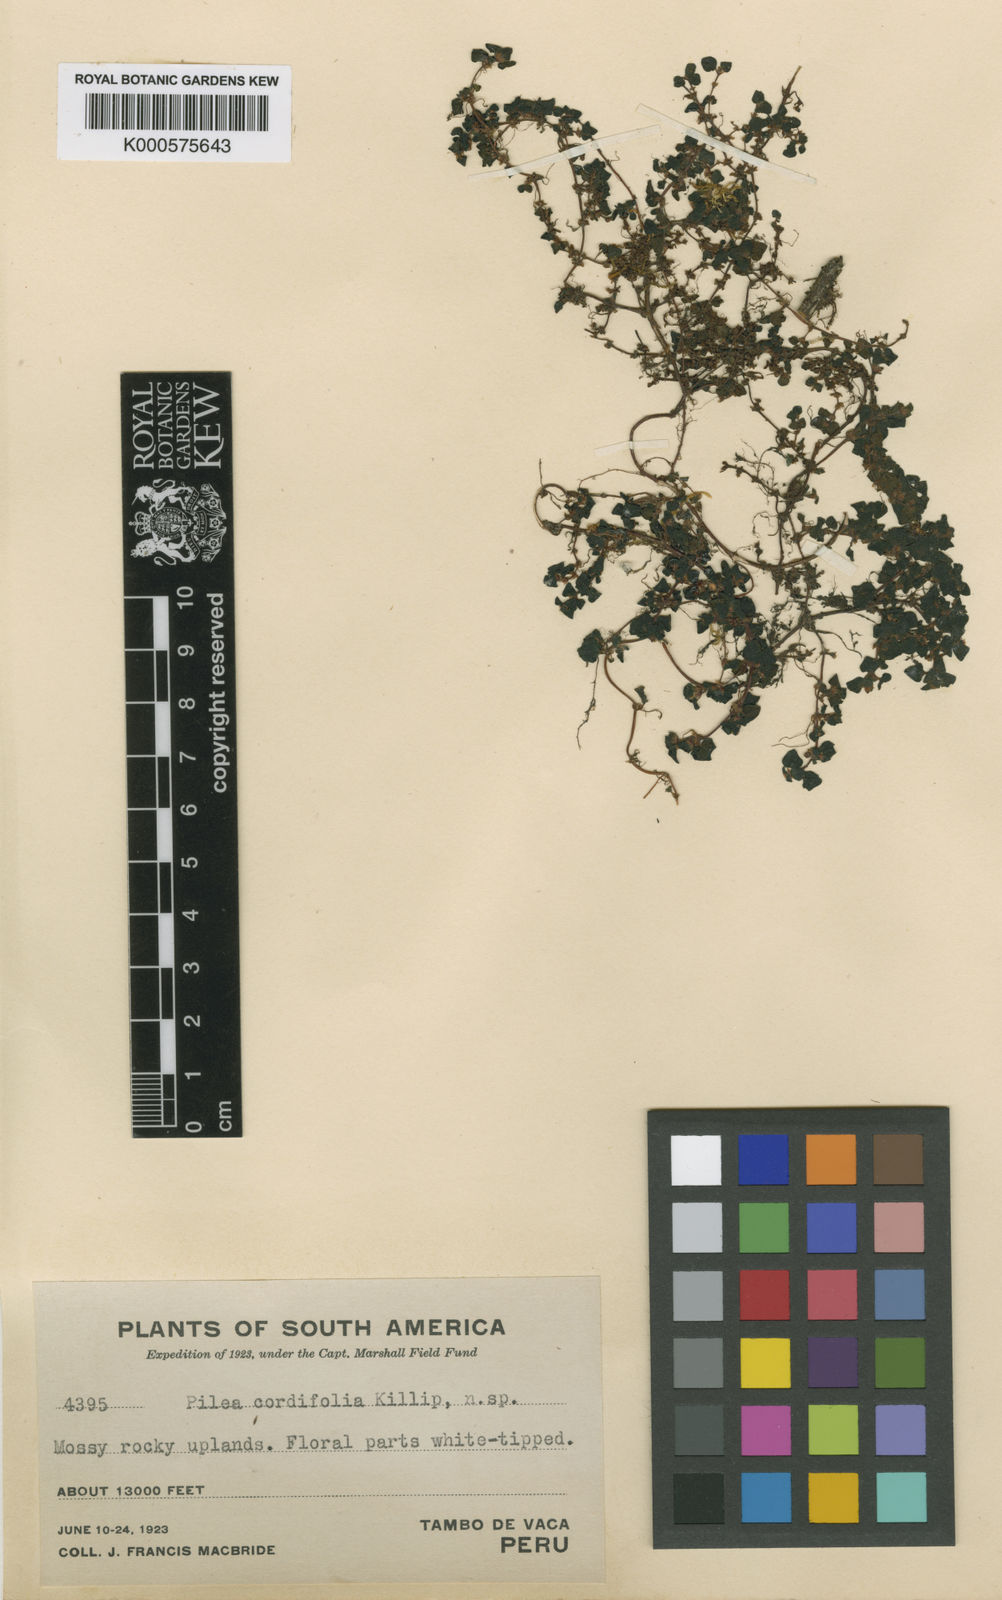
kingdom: Plantae
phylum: Tracheophyta
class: Magnoliopsida
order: Rosales
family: Urticaceae
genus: Pilea
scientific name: Pilea nerteroides
